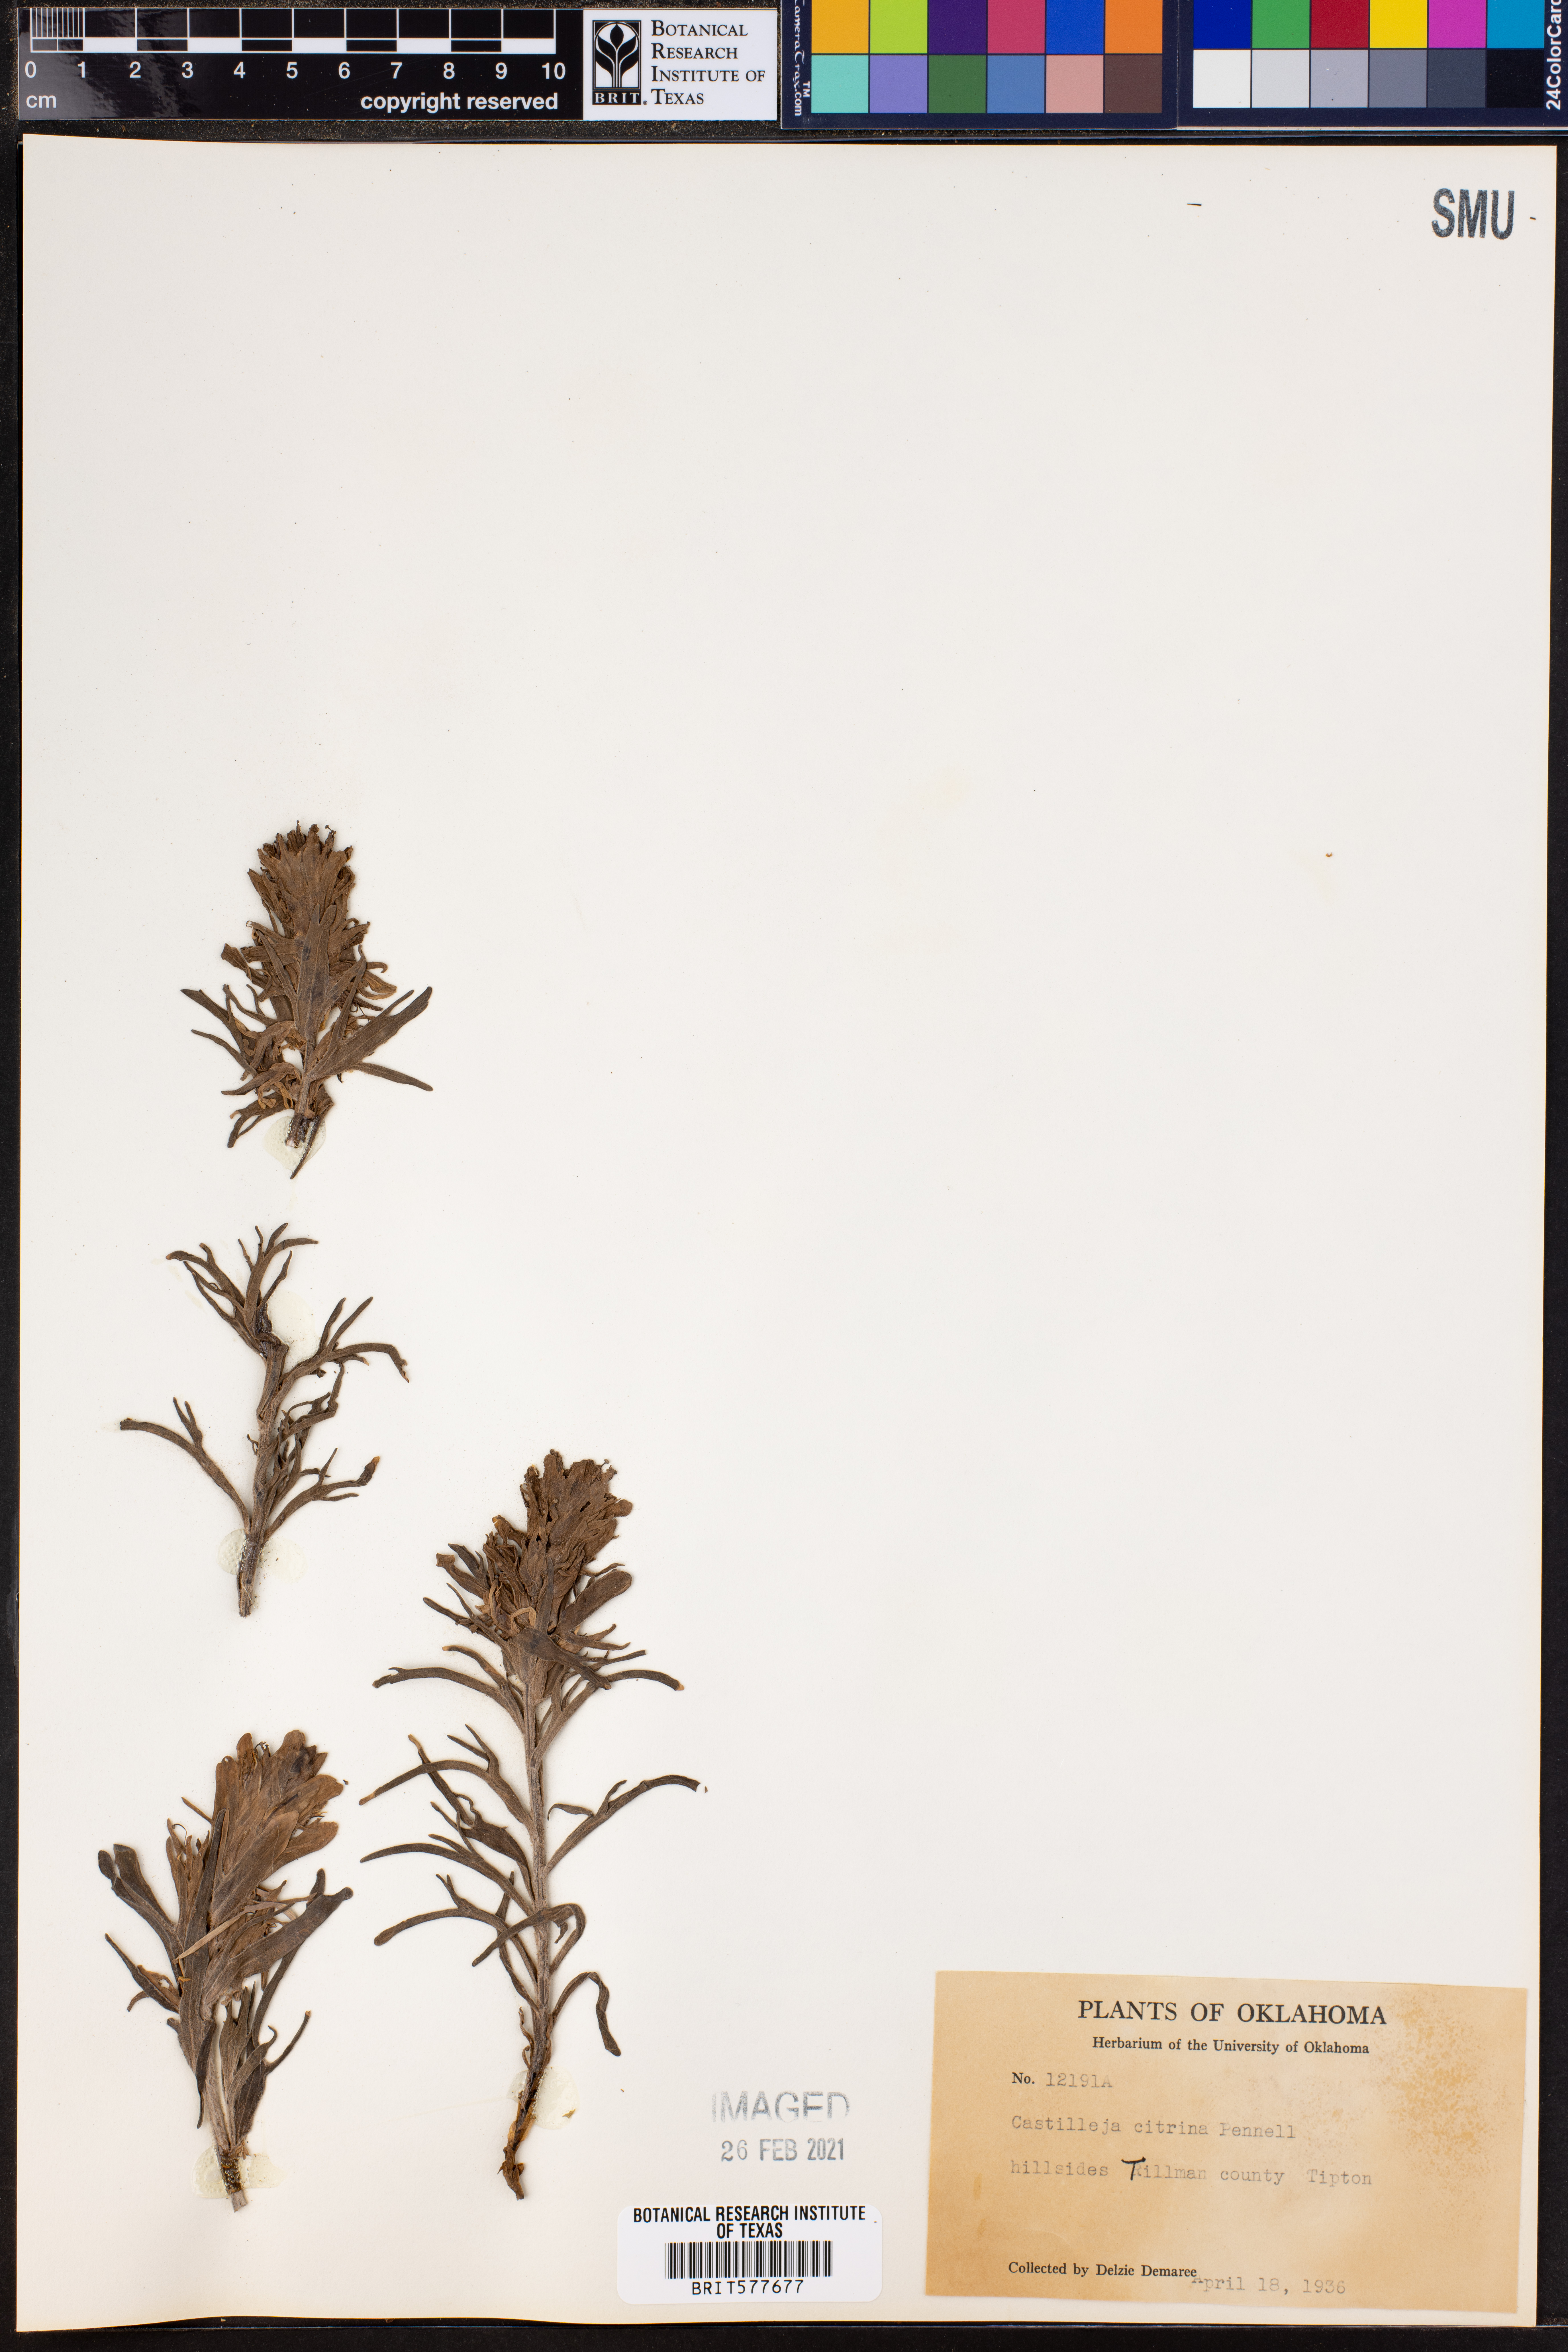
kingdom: Plantae
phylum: Tracheophyta
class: Magnoliopsida
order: Lamiales
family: Orobanchaceae
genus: Castilleja
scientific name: Castilleja citrina
